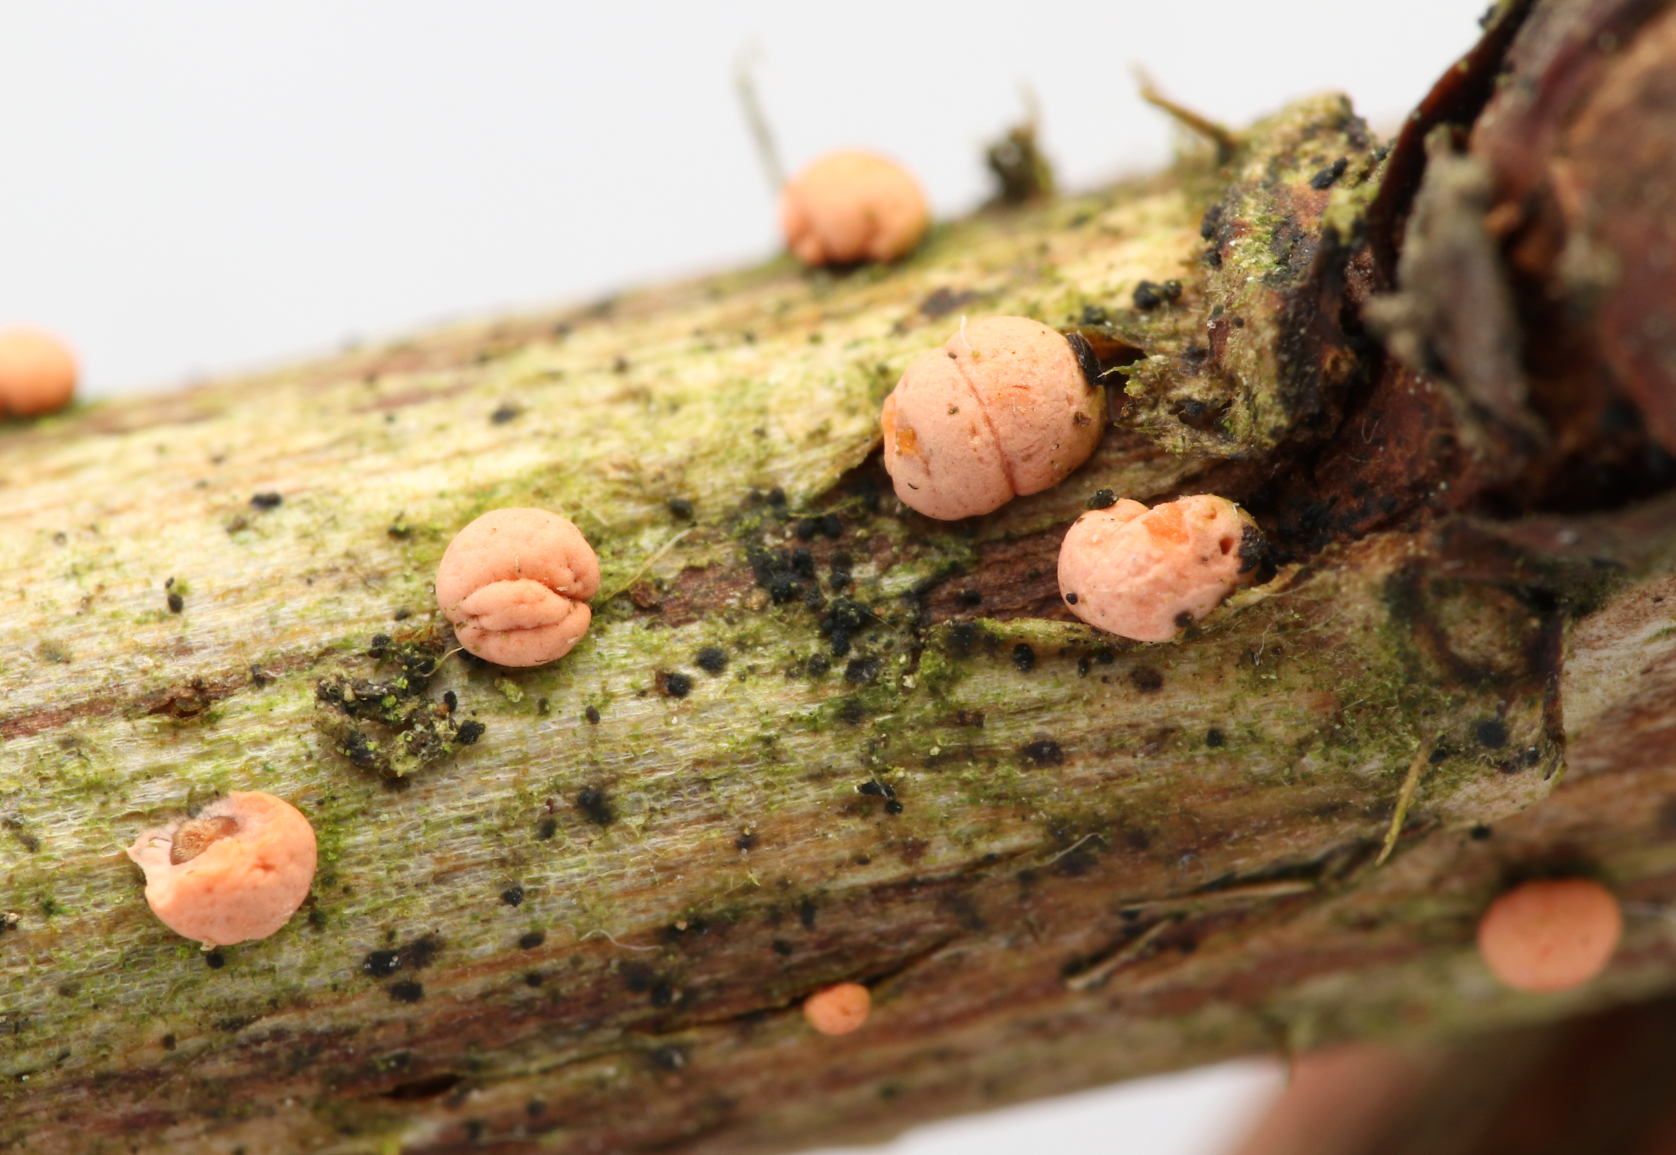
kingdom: Fungi
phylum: Ascomycota
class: Sordariomycetes
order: Hypocreales
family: Nectriaceae
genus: Nectria
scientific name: Nectria cinnabarina
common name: almindelig cinnobersvamp
